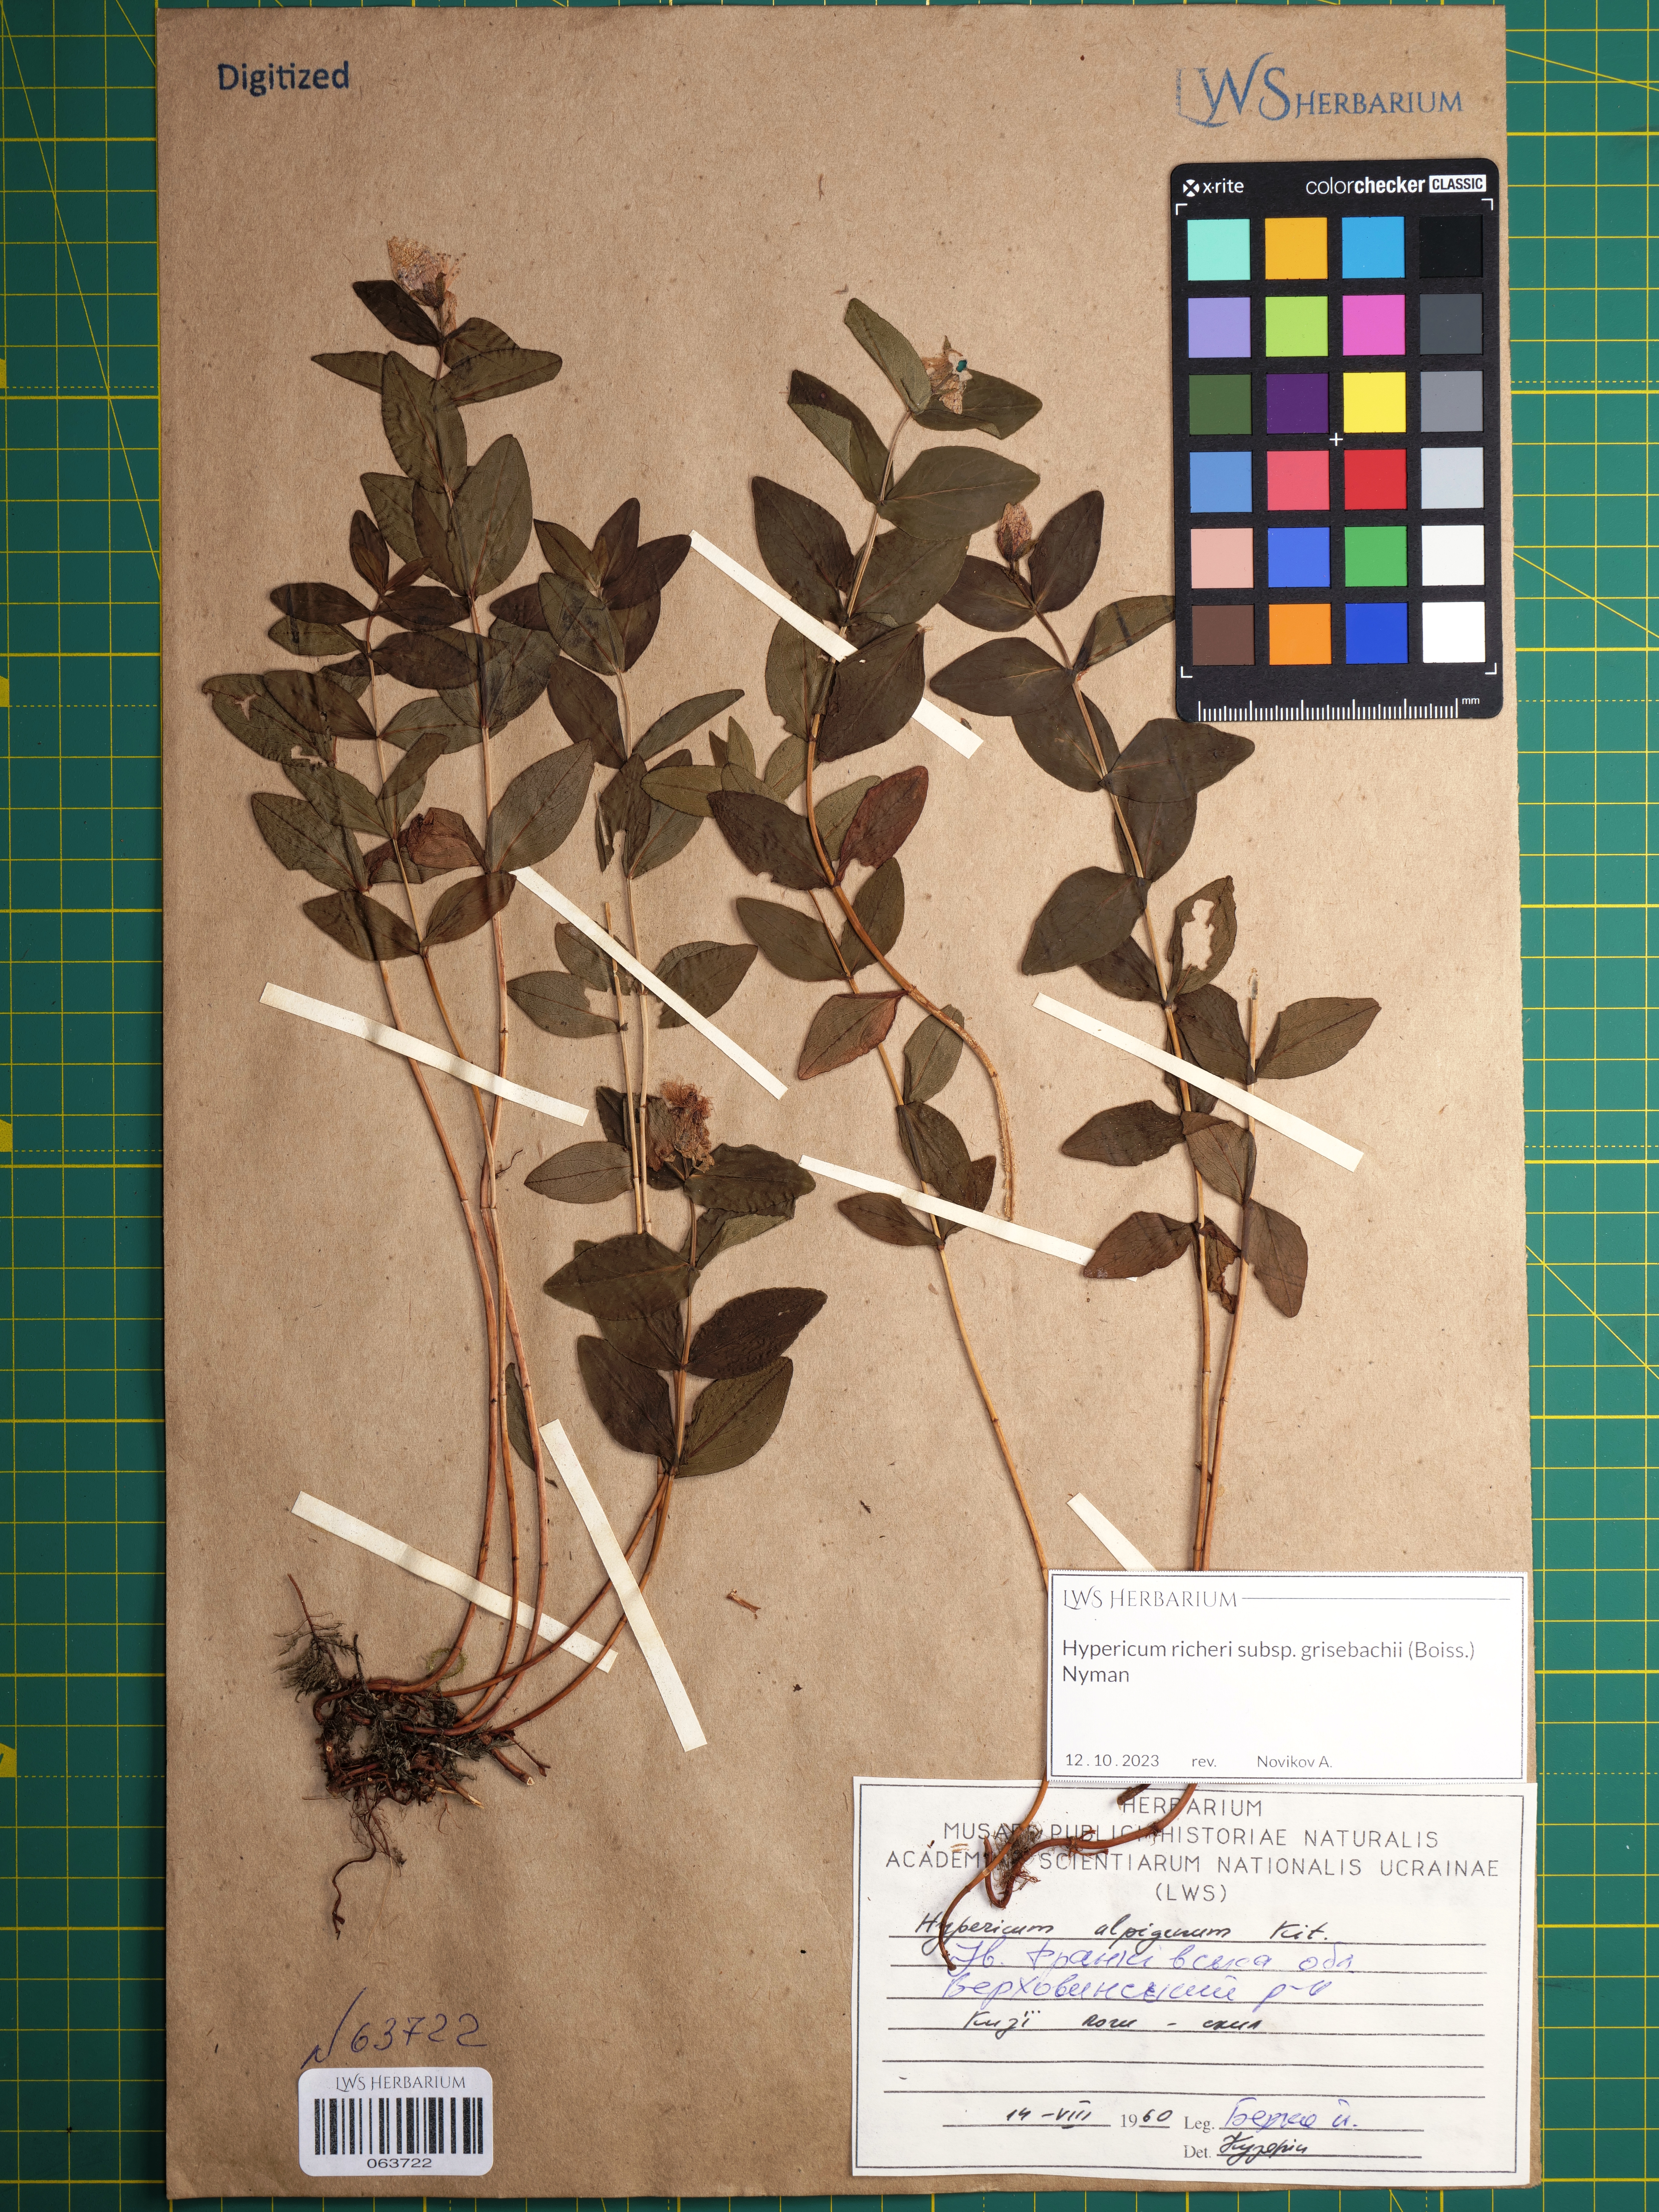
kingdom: Plantae
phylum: Tracheophyta
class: Magnoliopsida
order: Malpighiales
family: Hypericaceae
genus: Hypericum
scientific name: Hypericum richeri
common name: Alpine st john's-wort
